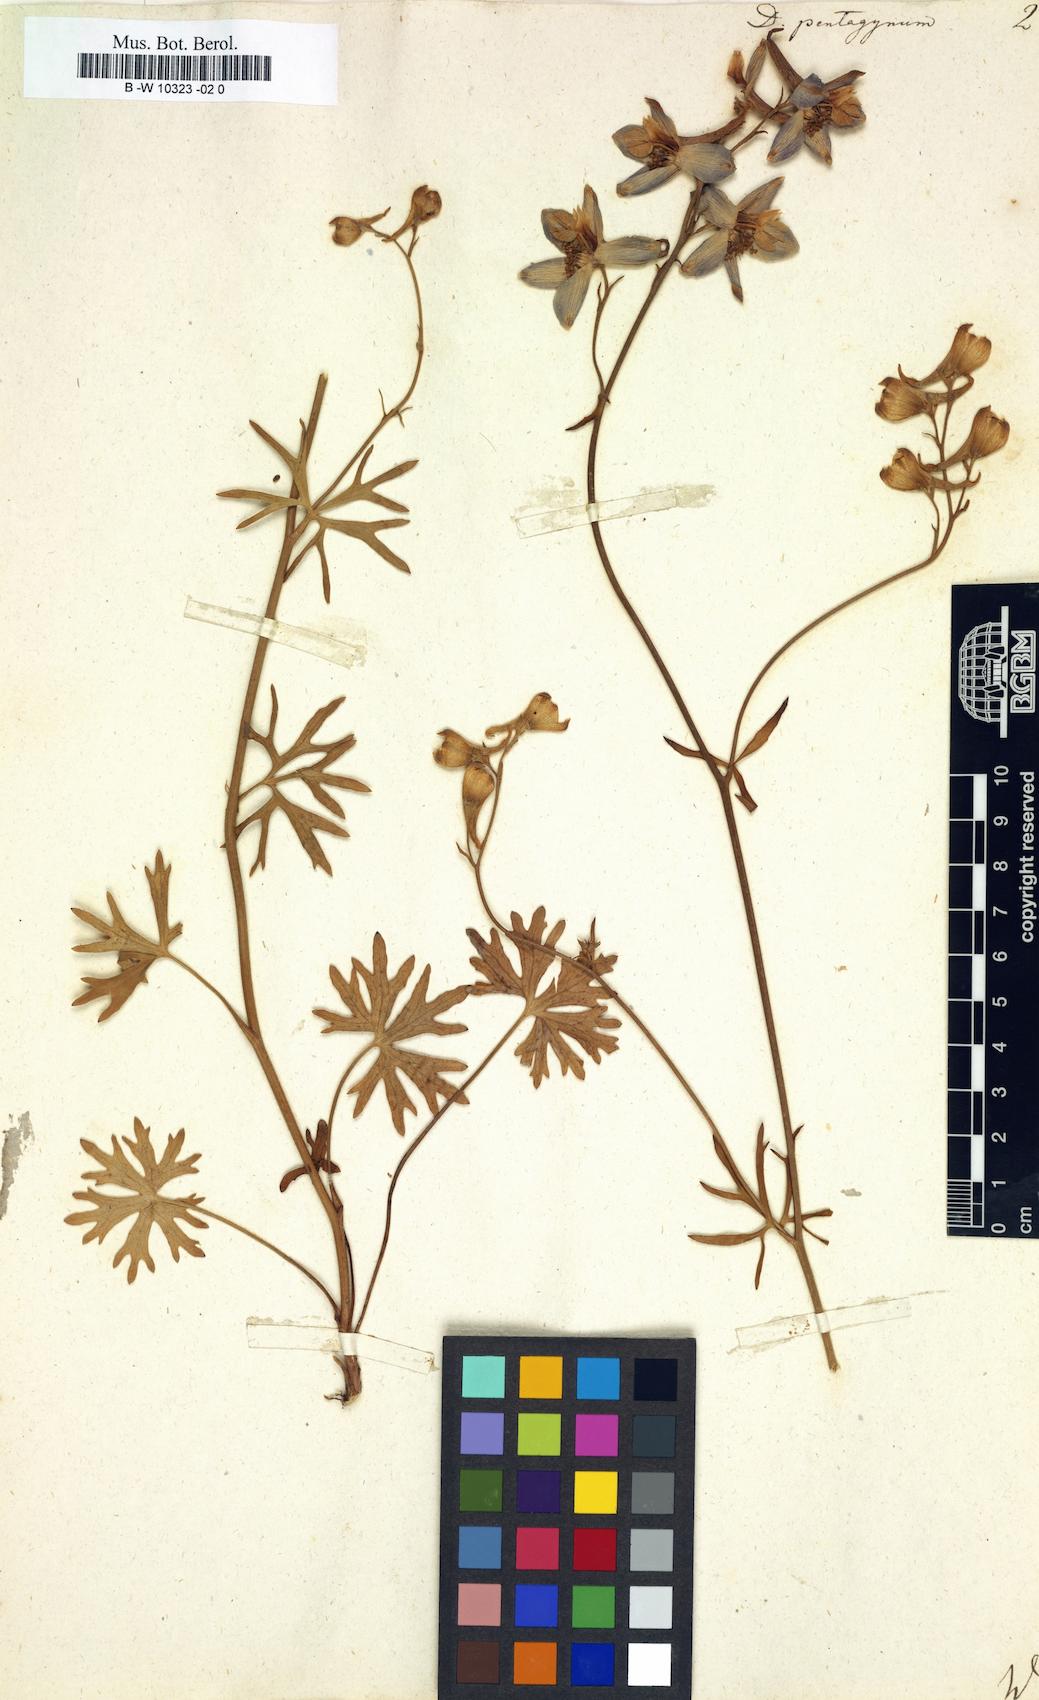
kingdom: Plantae
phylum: Tracheophyta
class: Magnoliopsida
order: Ranunculales
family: Ranunculaceae
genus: Delphinium
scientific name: Delphinium pentagynum
